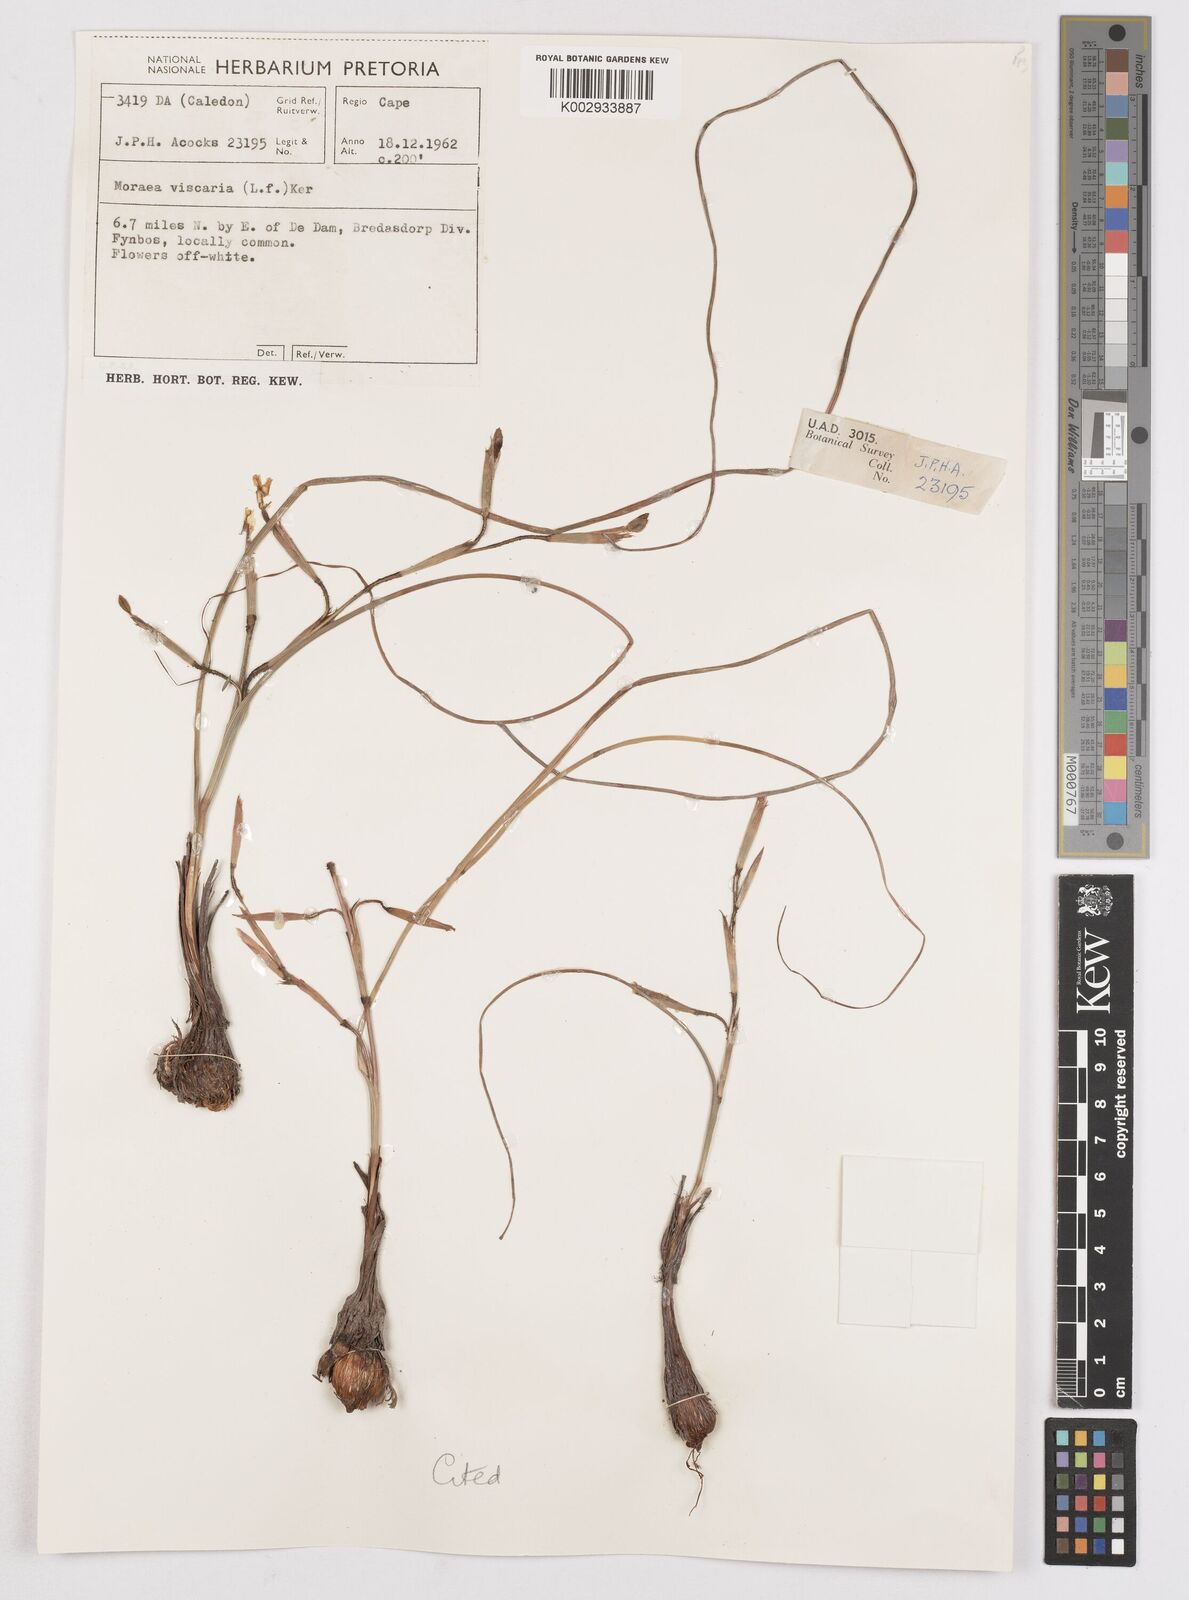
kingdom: Plantae
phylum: Tracheophyta
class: Liliopsida
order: Asparagales
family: Iridaceae
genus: Moraea
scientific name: Moraea viscaria
